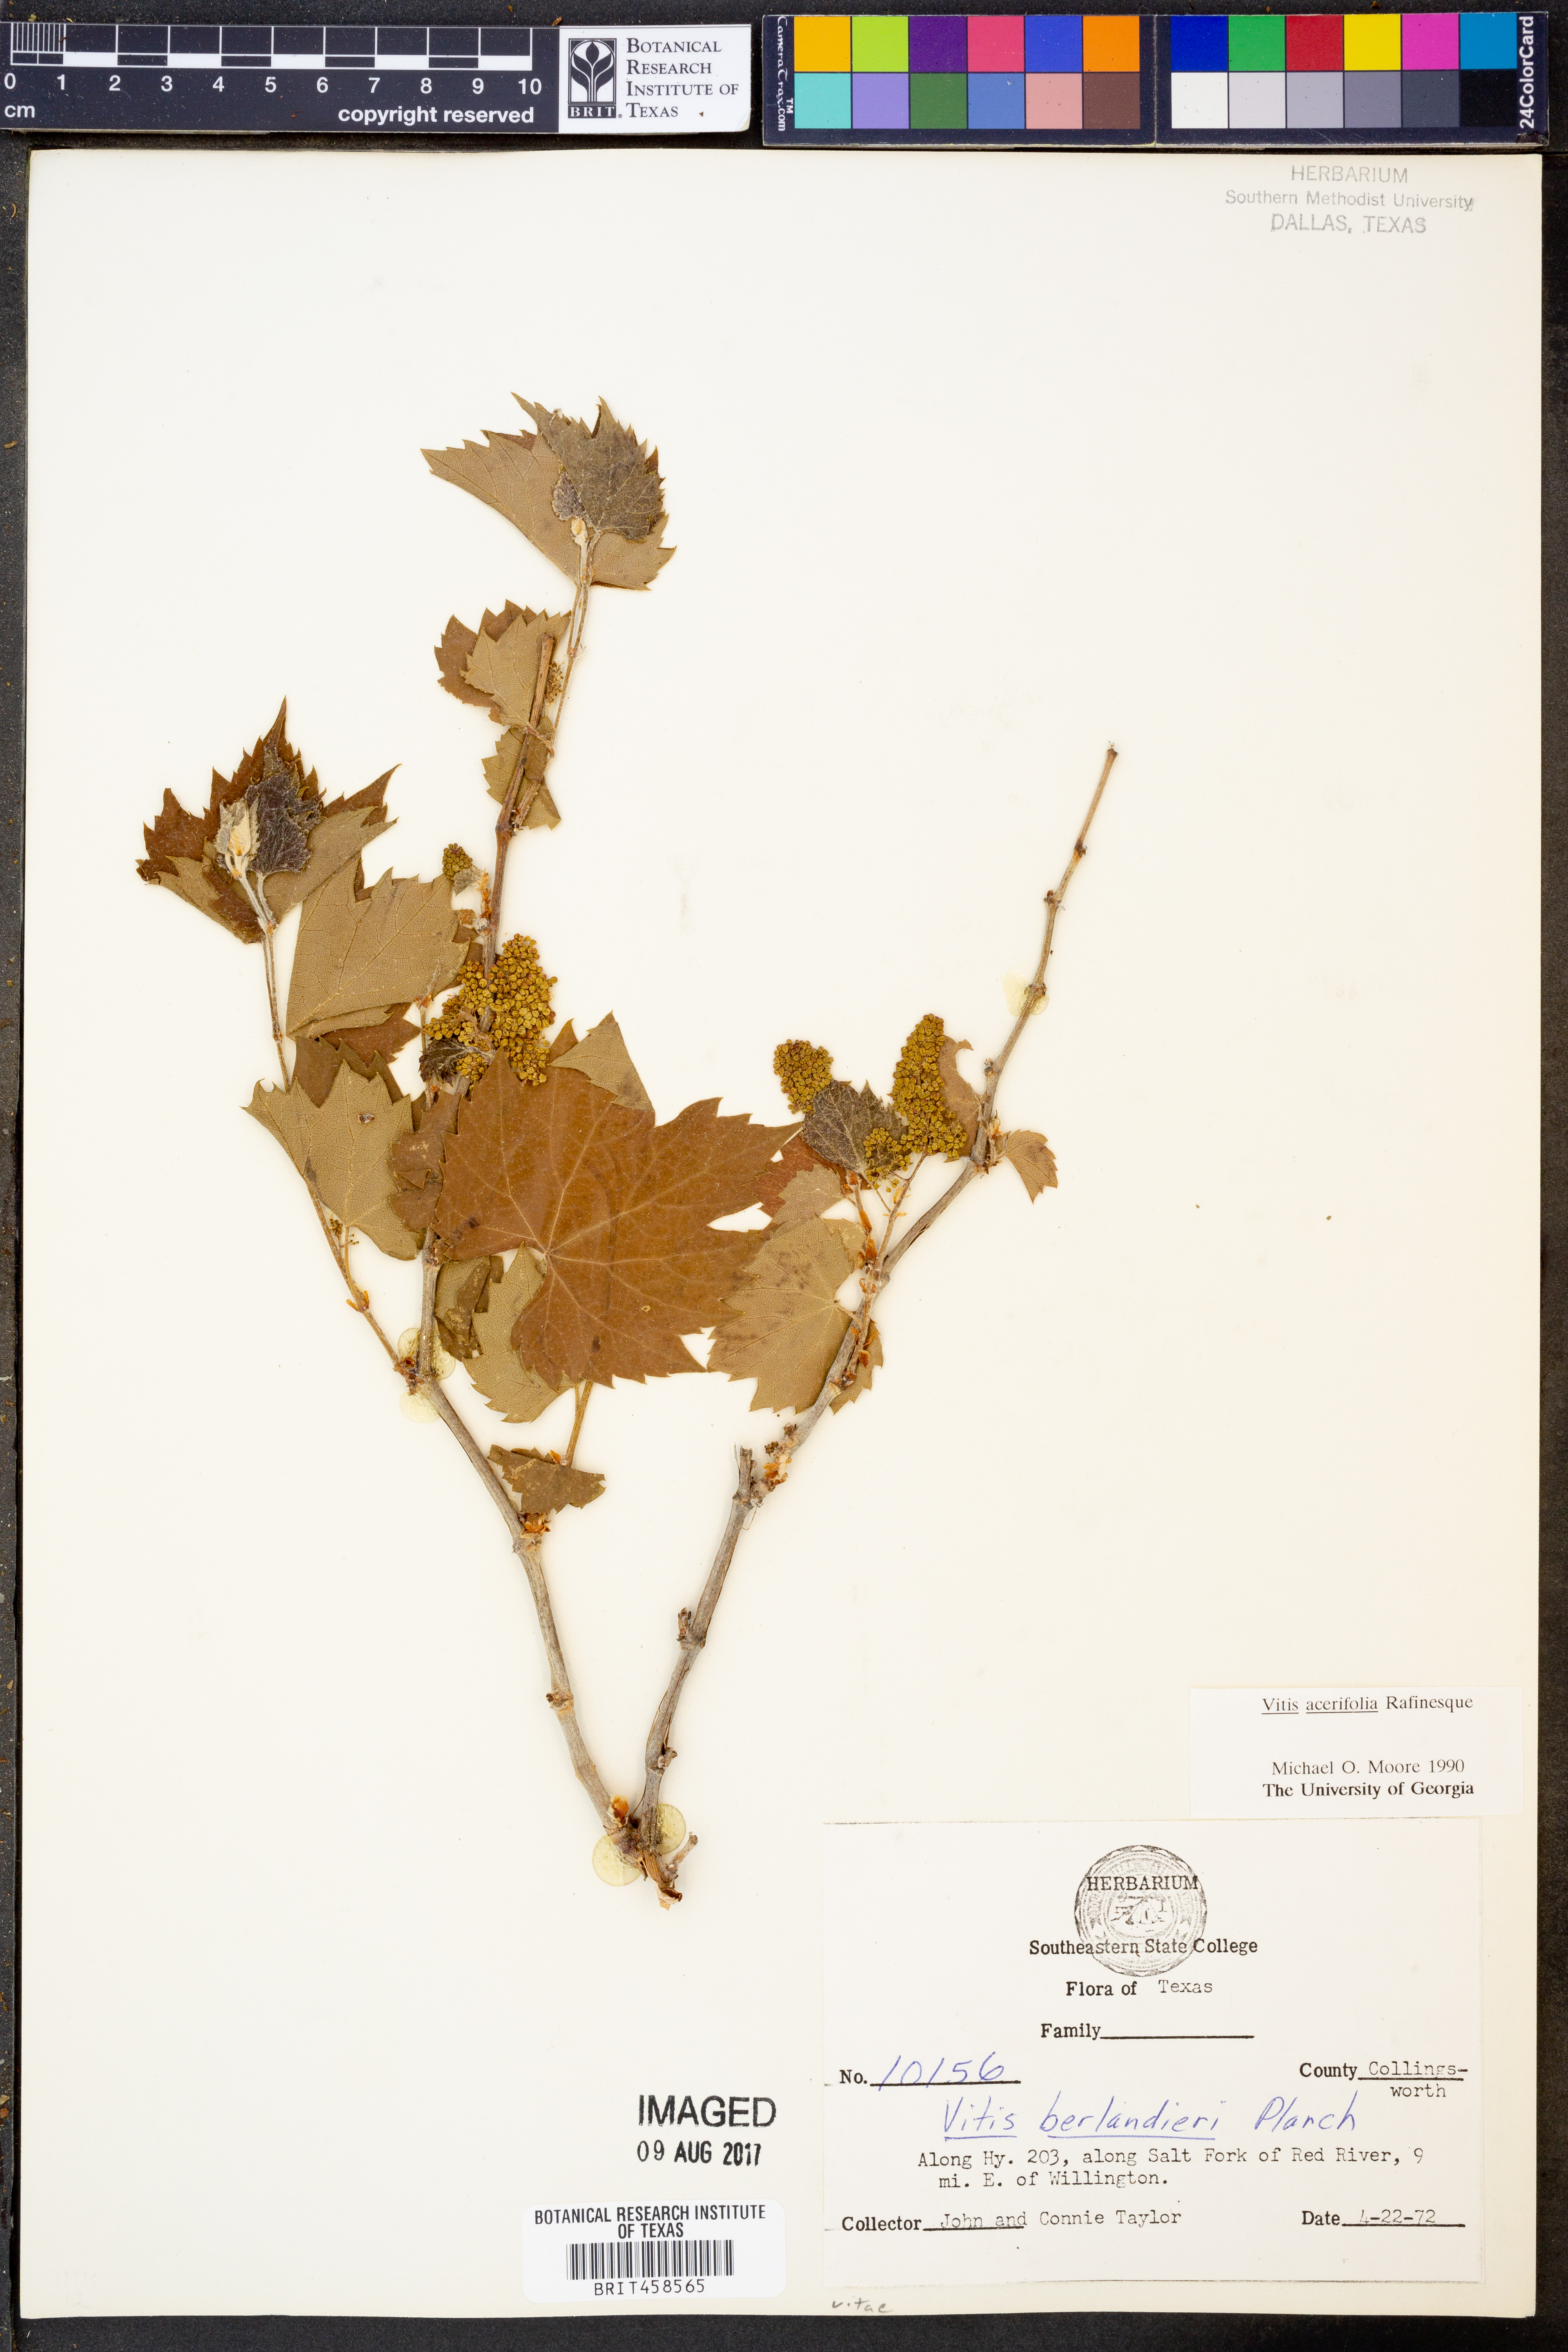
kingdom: Plantae
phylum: Tracheophyta
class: Magnoliopsida
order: Vitales
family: Vitaceae
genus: Vitis
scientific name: Vitis acerifolia
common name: Bush grape
